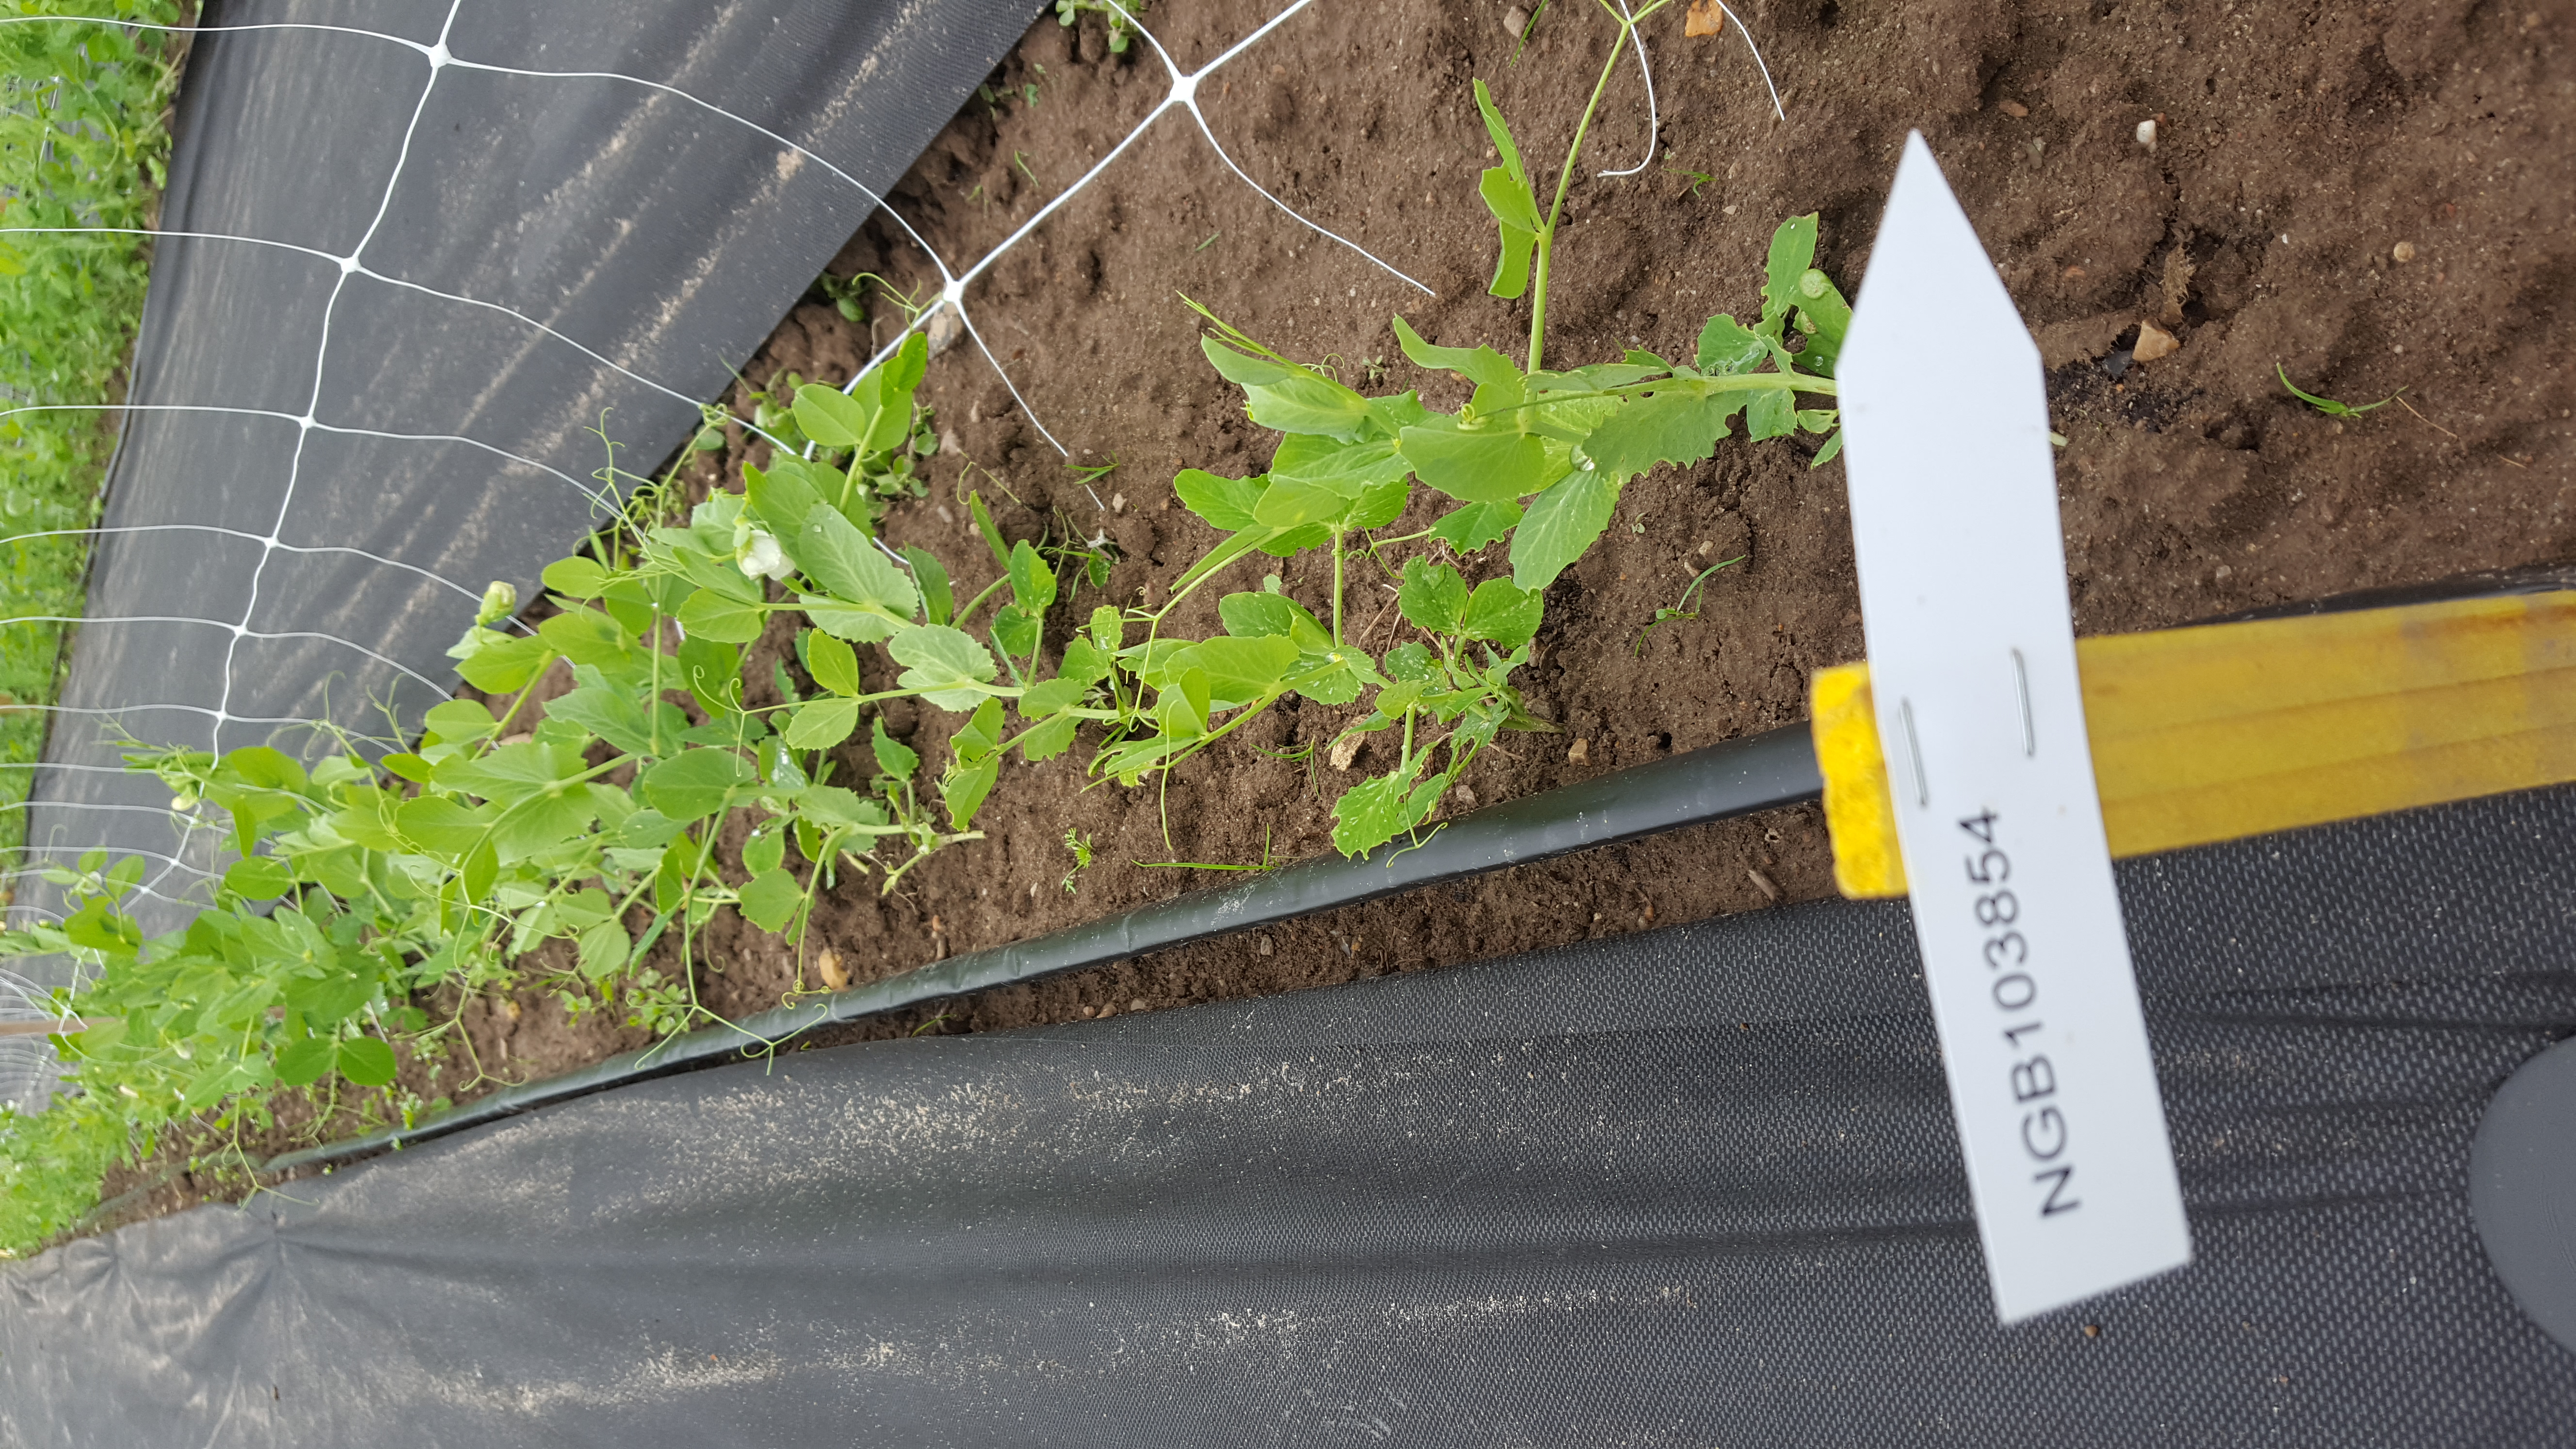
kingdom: Plantae
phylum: Tracheophyta
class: Magnoliopsida
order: Fabales
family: Fabaceae
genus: Lathyrus
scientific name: Lathyrus oleraceus
